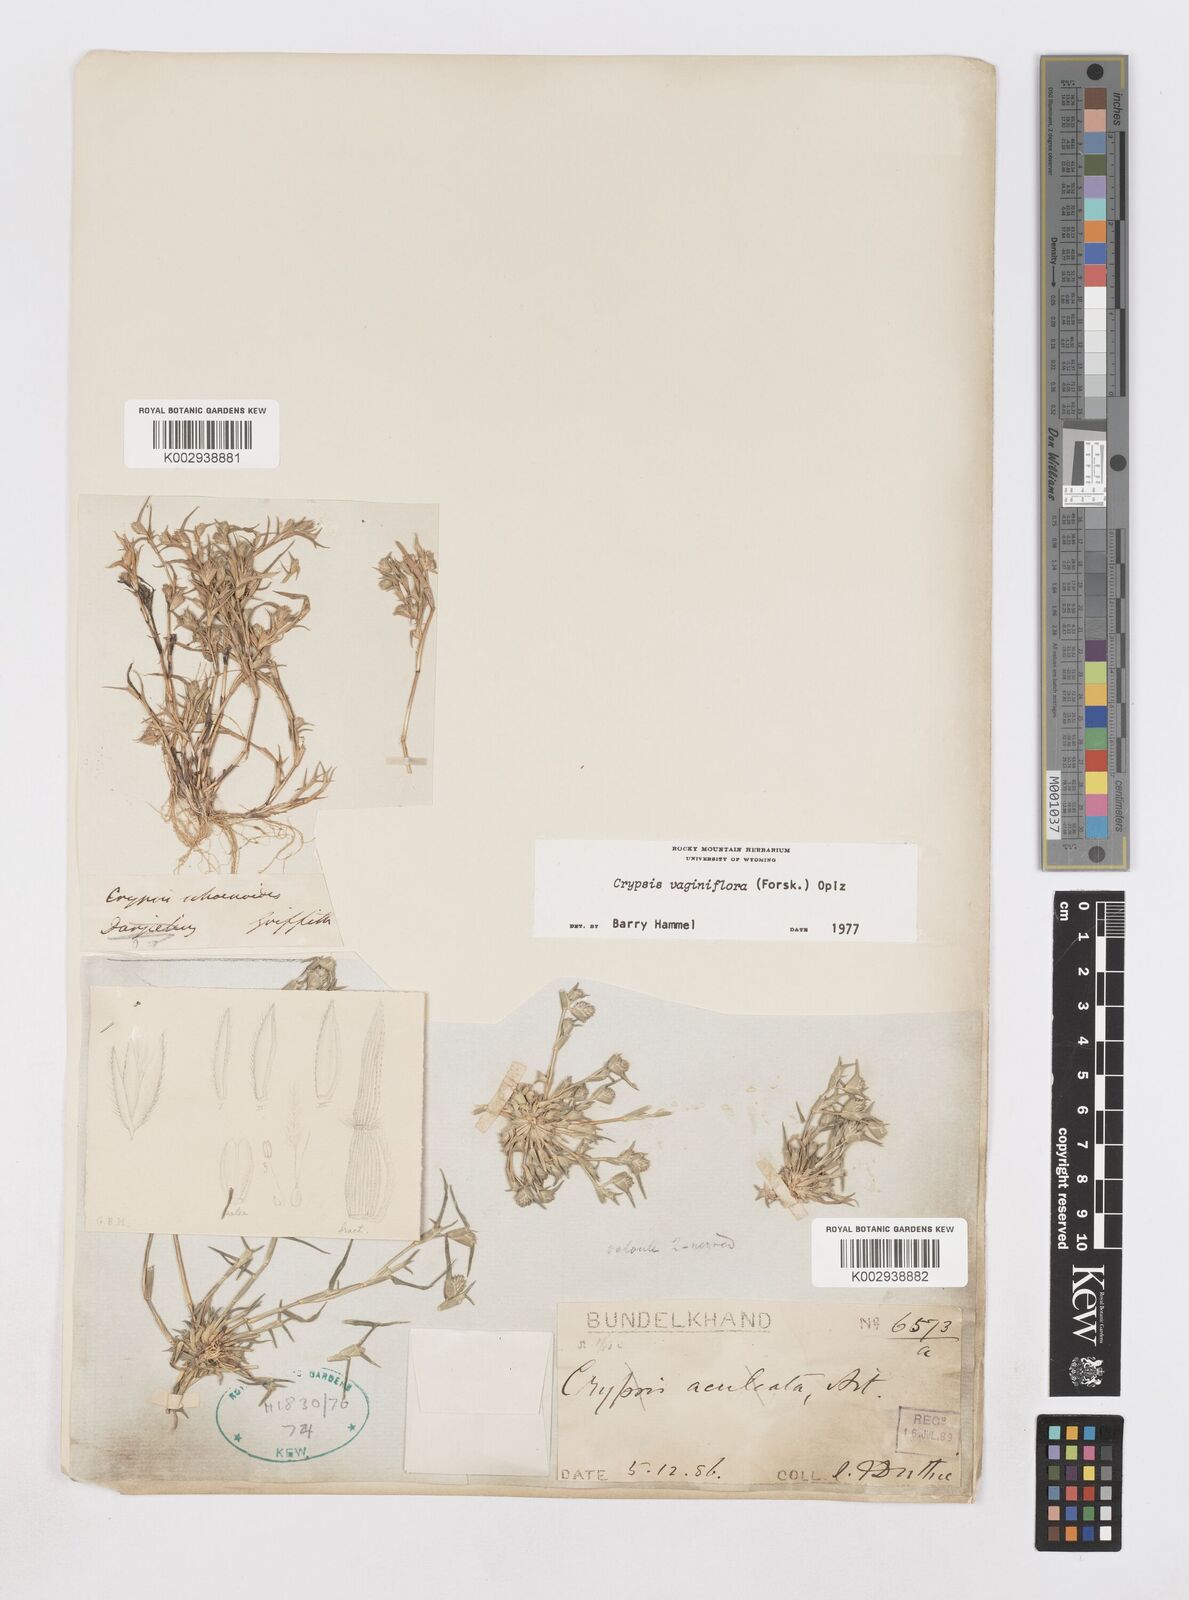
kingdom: Plantae
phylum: Tracheophyta
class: Liliopsida
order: Poales
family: Poaceae
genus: Sporobolus
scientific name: Sporobolus niliacus
